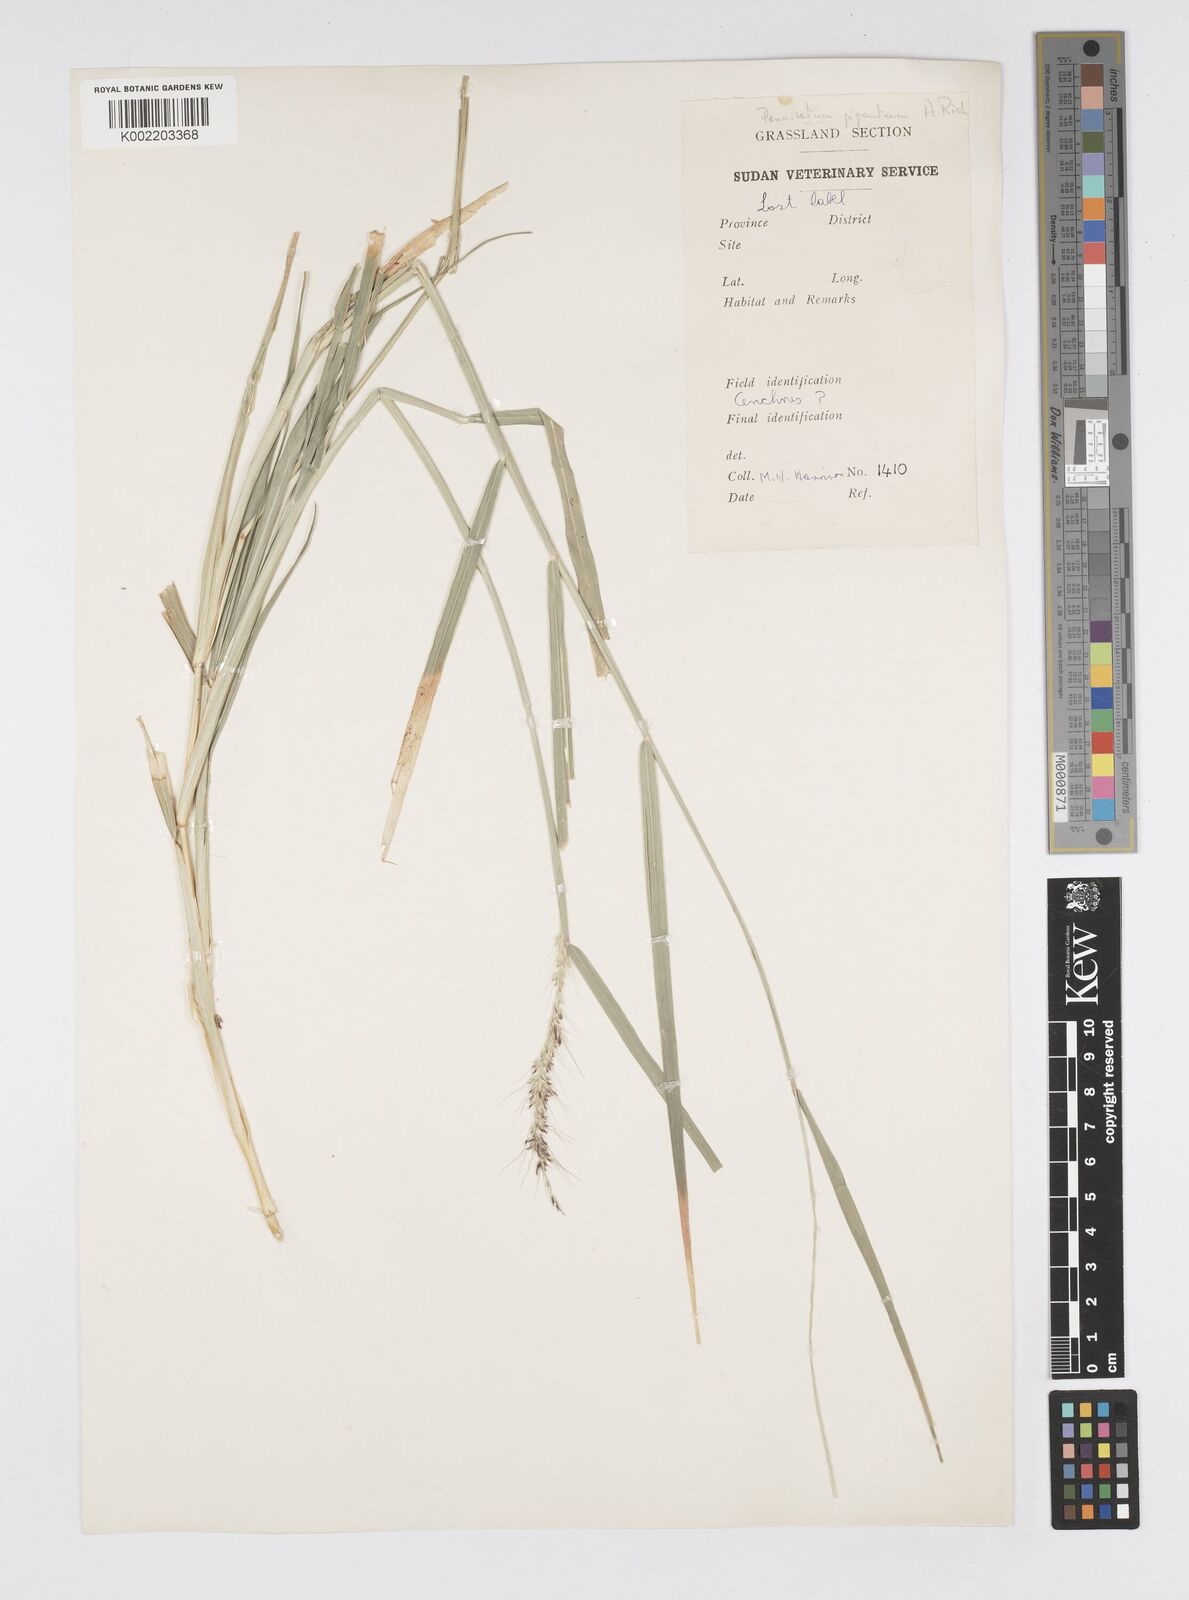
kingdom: Plantae
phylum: Tracheophyta
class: Liliopsida
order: Poales
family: Poaceae
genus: Cenchrus
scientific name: Cenchrus caudatus
